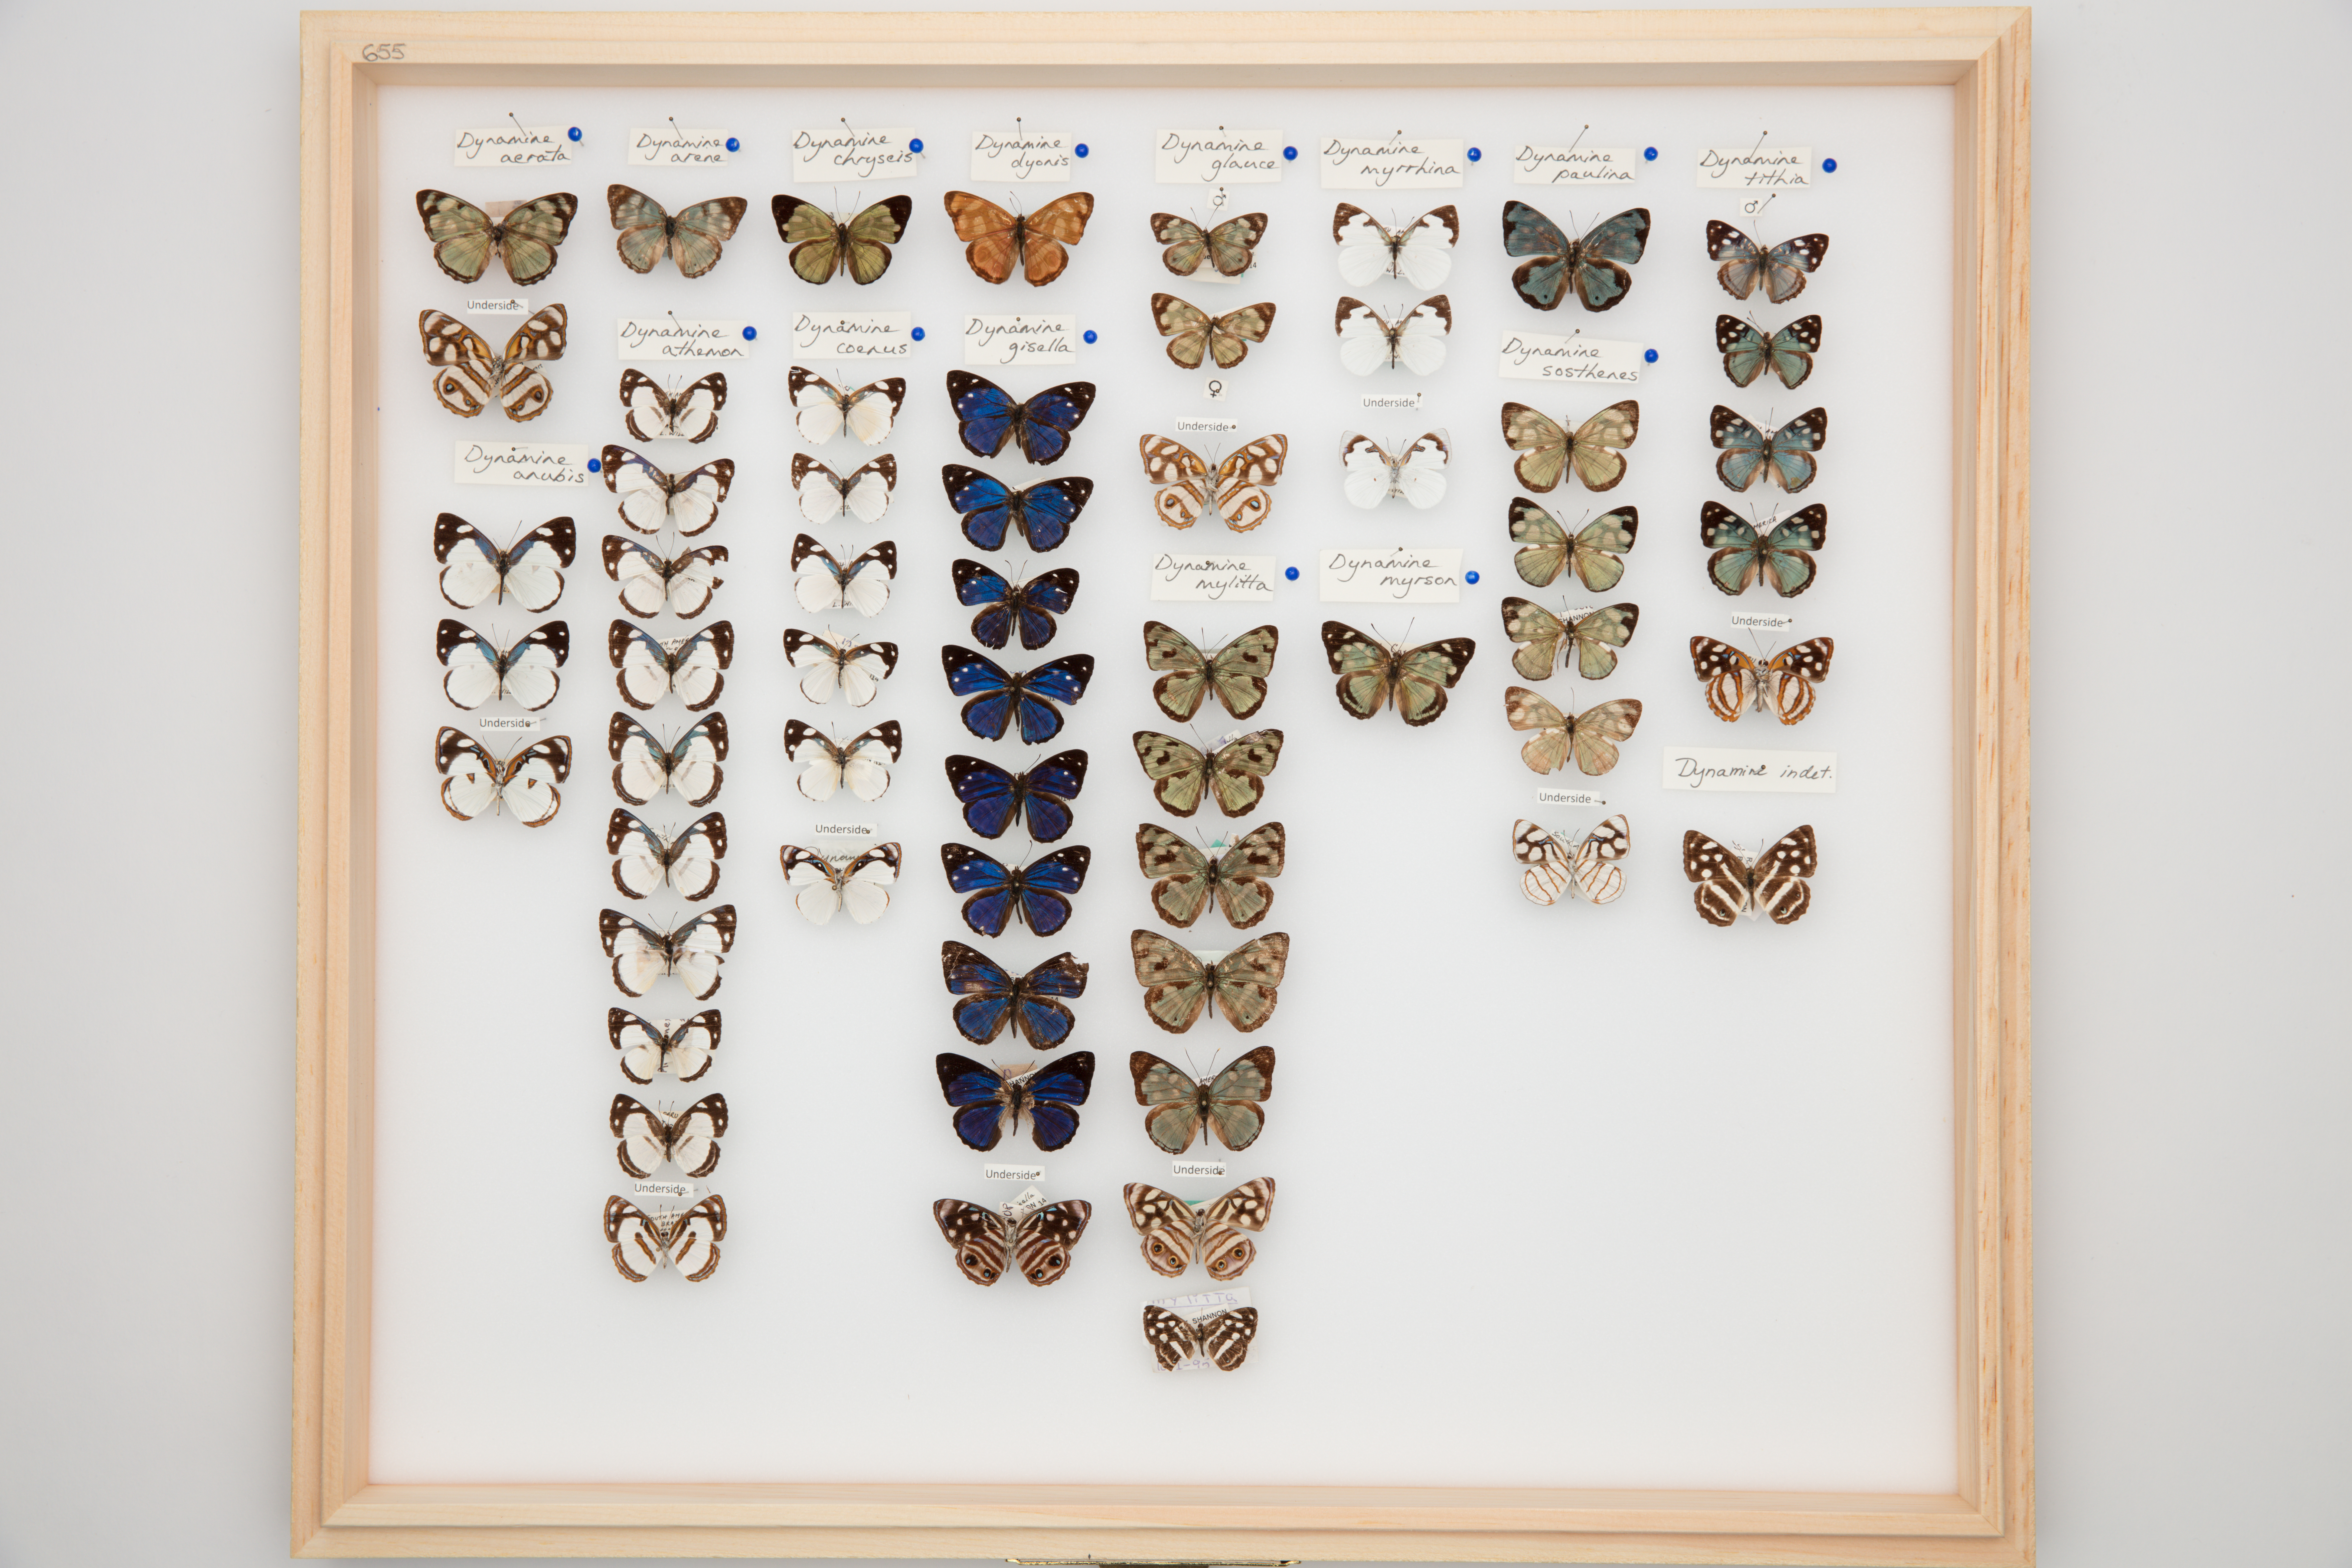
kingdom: Animalia
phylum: Arthropoda
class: Insecta
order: Lepidoptera
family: Nymphalidae
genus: Dynamine
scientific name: Dynamine athemon
